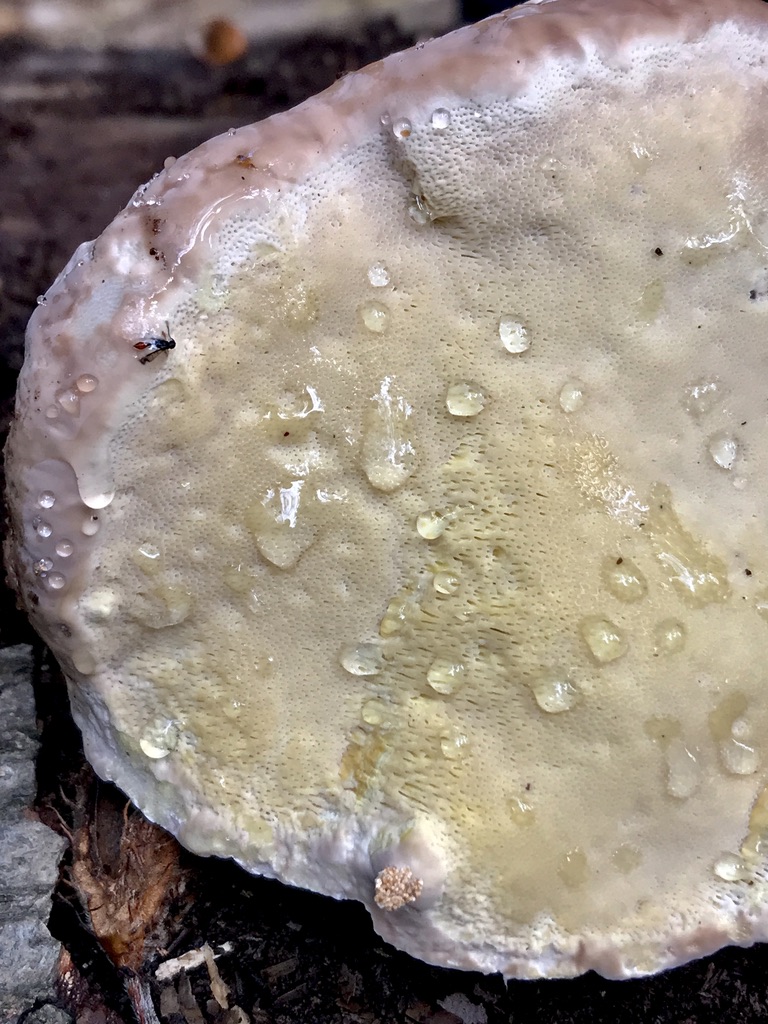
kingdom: Fungi
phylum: Basidiomycota
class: Agaricomycetes
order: Polyporales
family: Fomitopsidaceae
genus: Fomitopsis
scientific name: Fomitopsis pinicola
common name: randbæltet hovporesvamp
